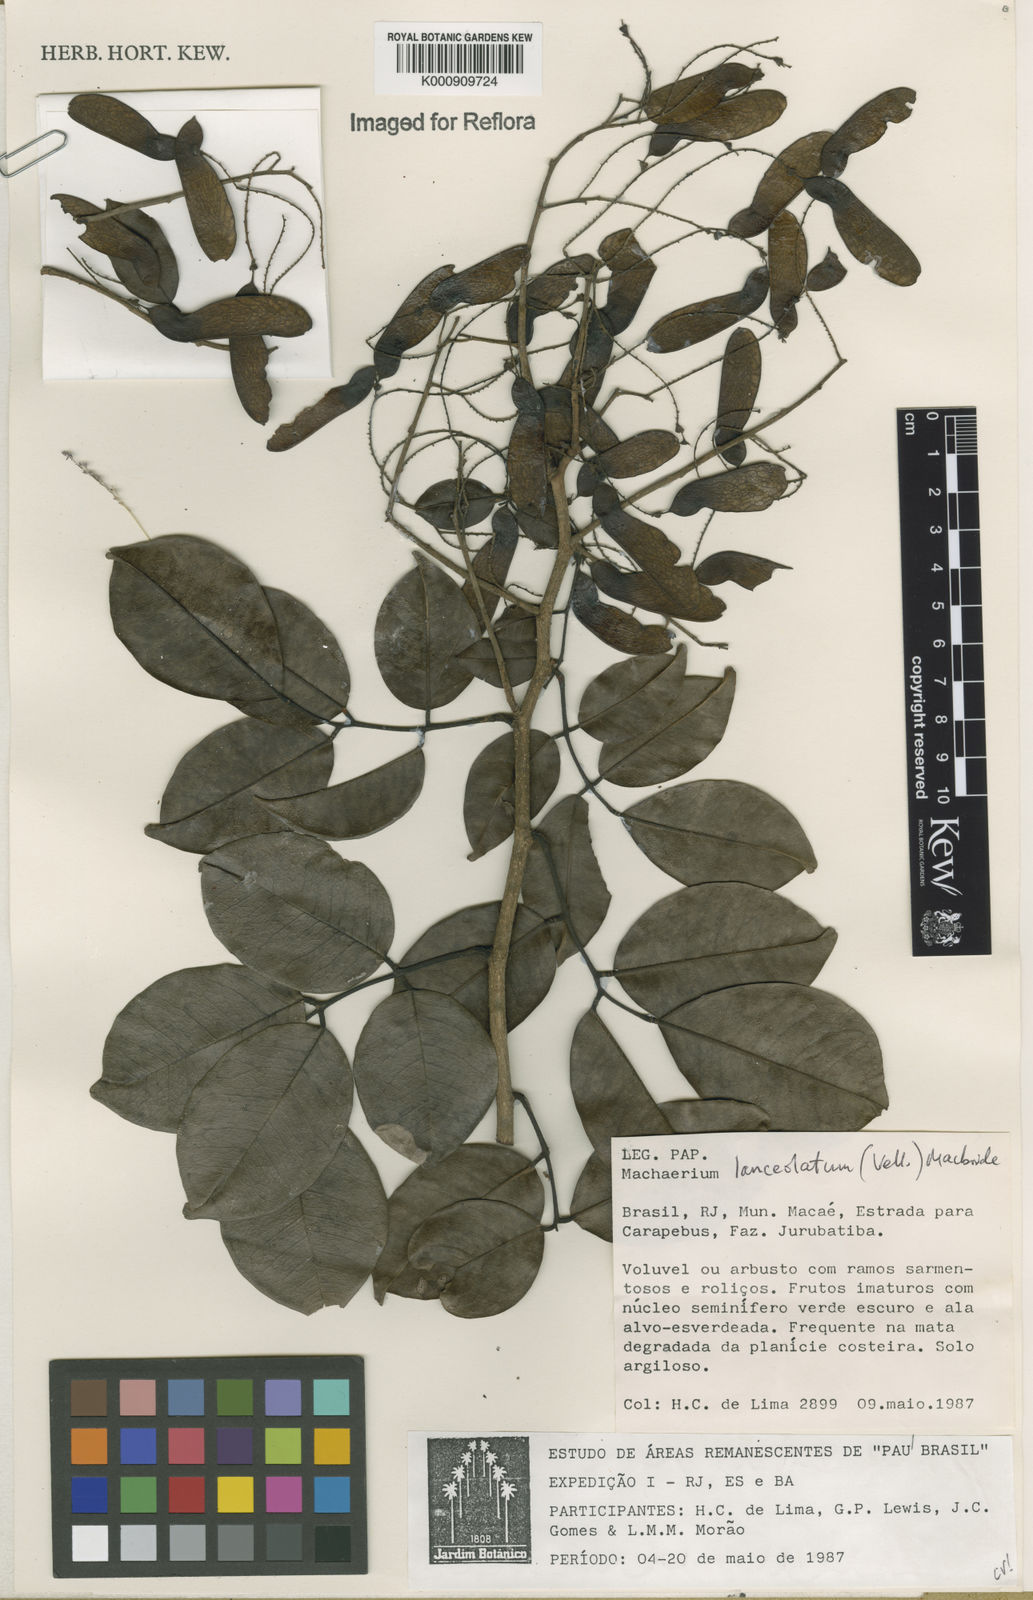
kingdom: Plantae
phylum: Tracheophyta
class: Magnoliopsida
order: Fabales
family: Fabaceae
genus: Machaerium
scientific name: Machaerium lanceolatum
